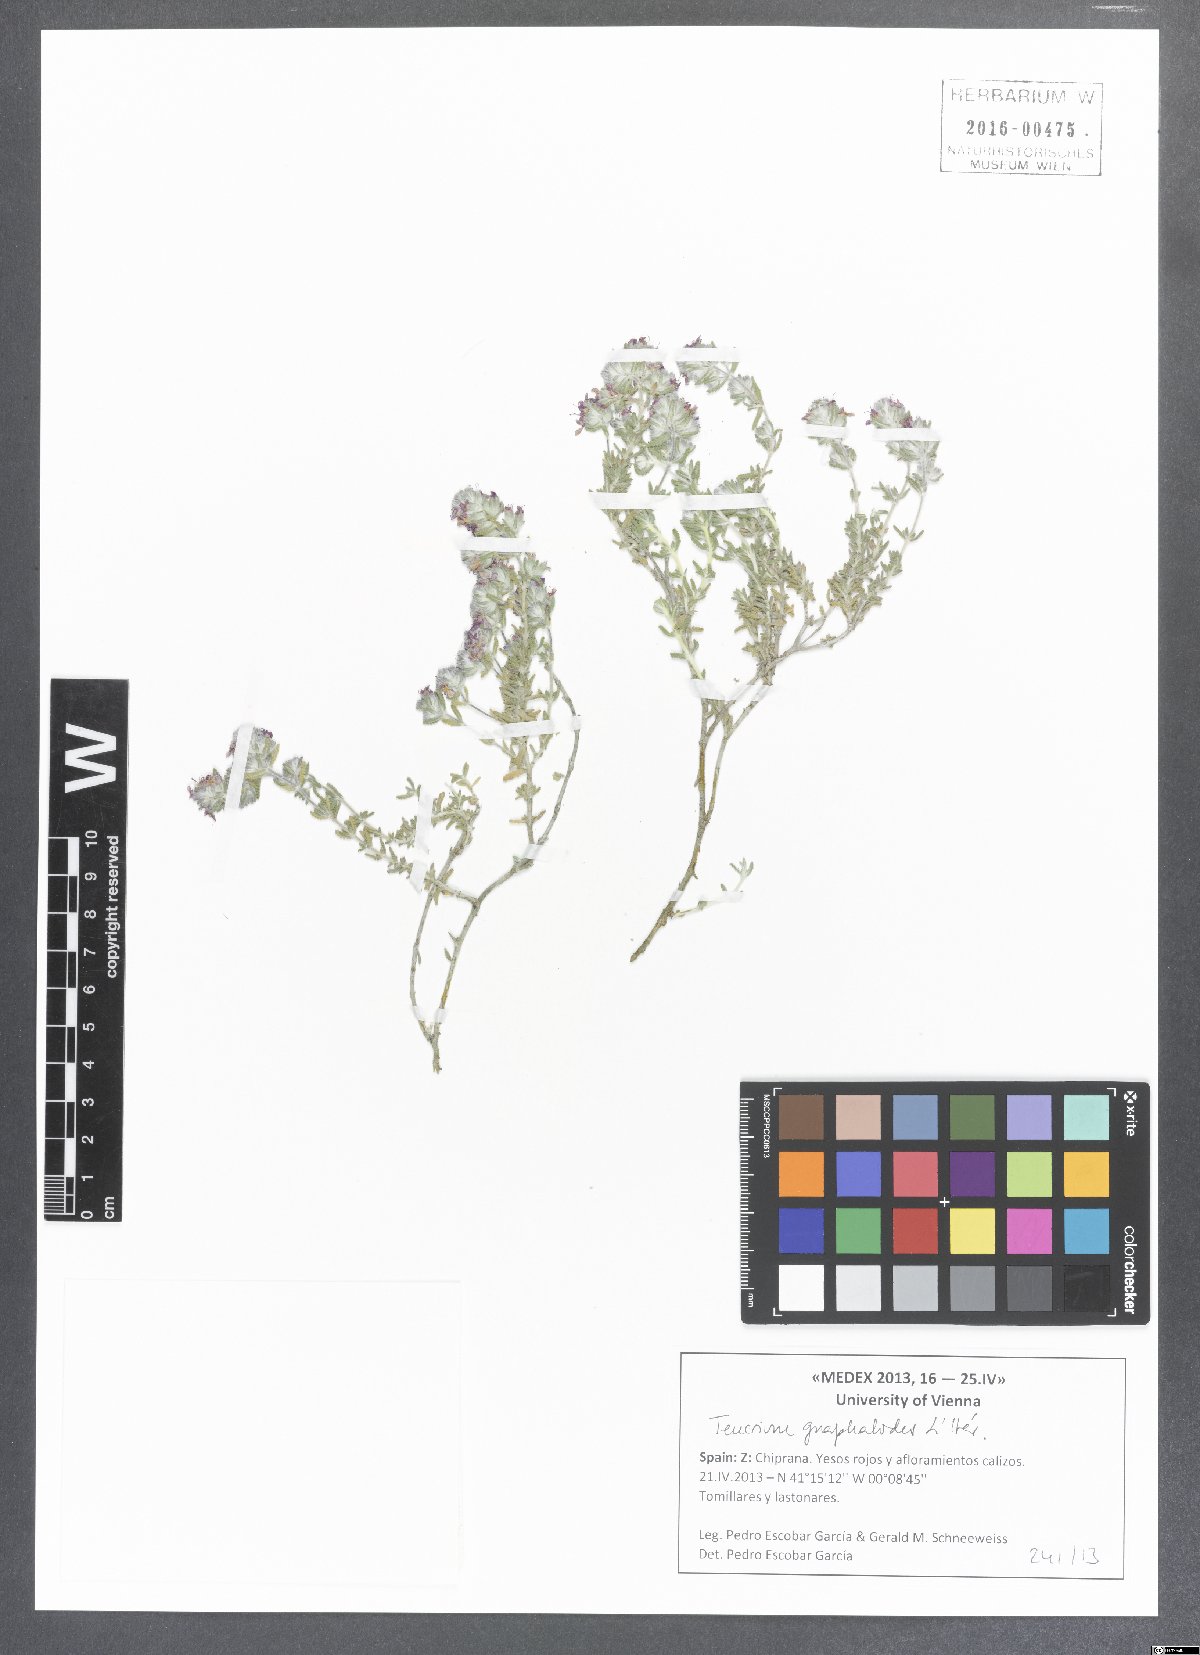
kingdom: Plantae
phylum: Tracheophyta
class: Magnoliopsida
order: Lamiales
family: Lamiaceae
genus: Teucrium
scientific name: Teucrium gnaphalodes
